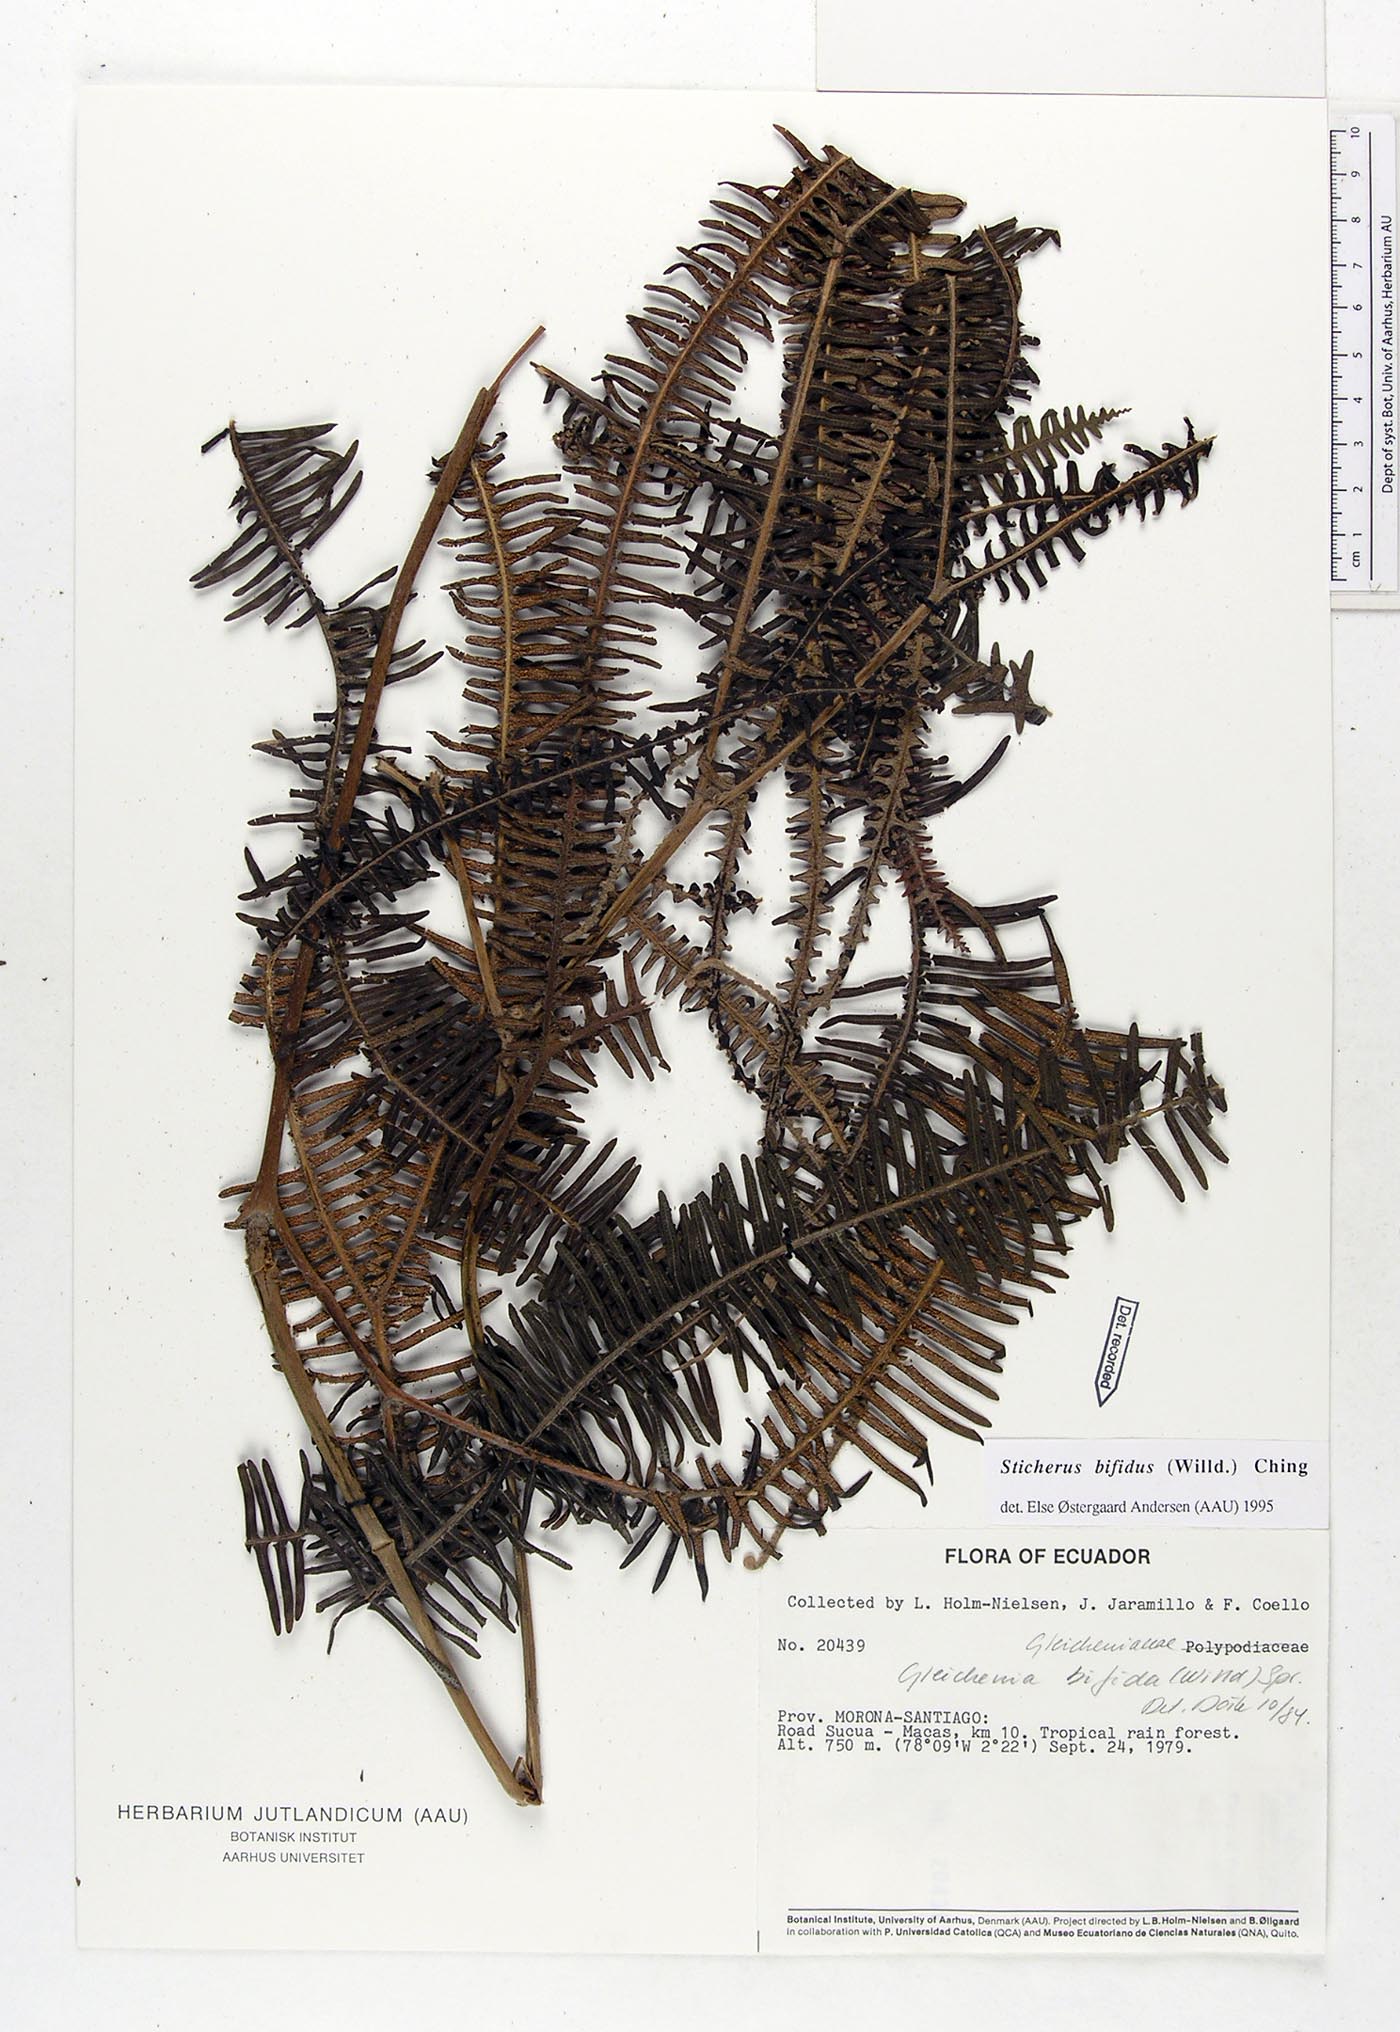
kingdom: Plantae
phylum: Tracheophyta
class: Polypodiopsida
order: Gleicheniales
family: Gleicheniaceae
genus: Sticherus
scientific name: Sticherus bifidus
